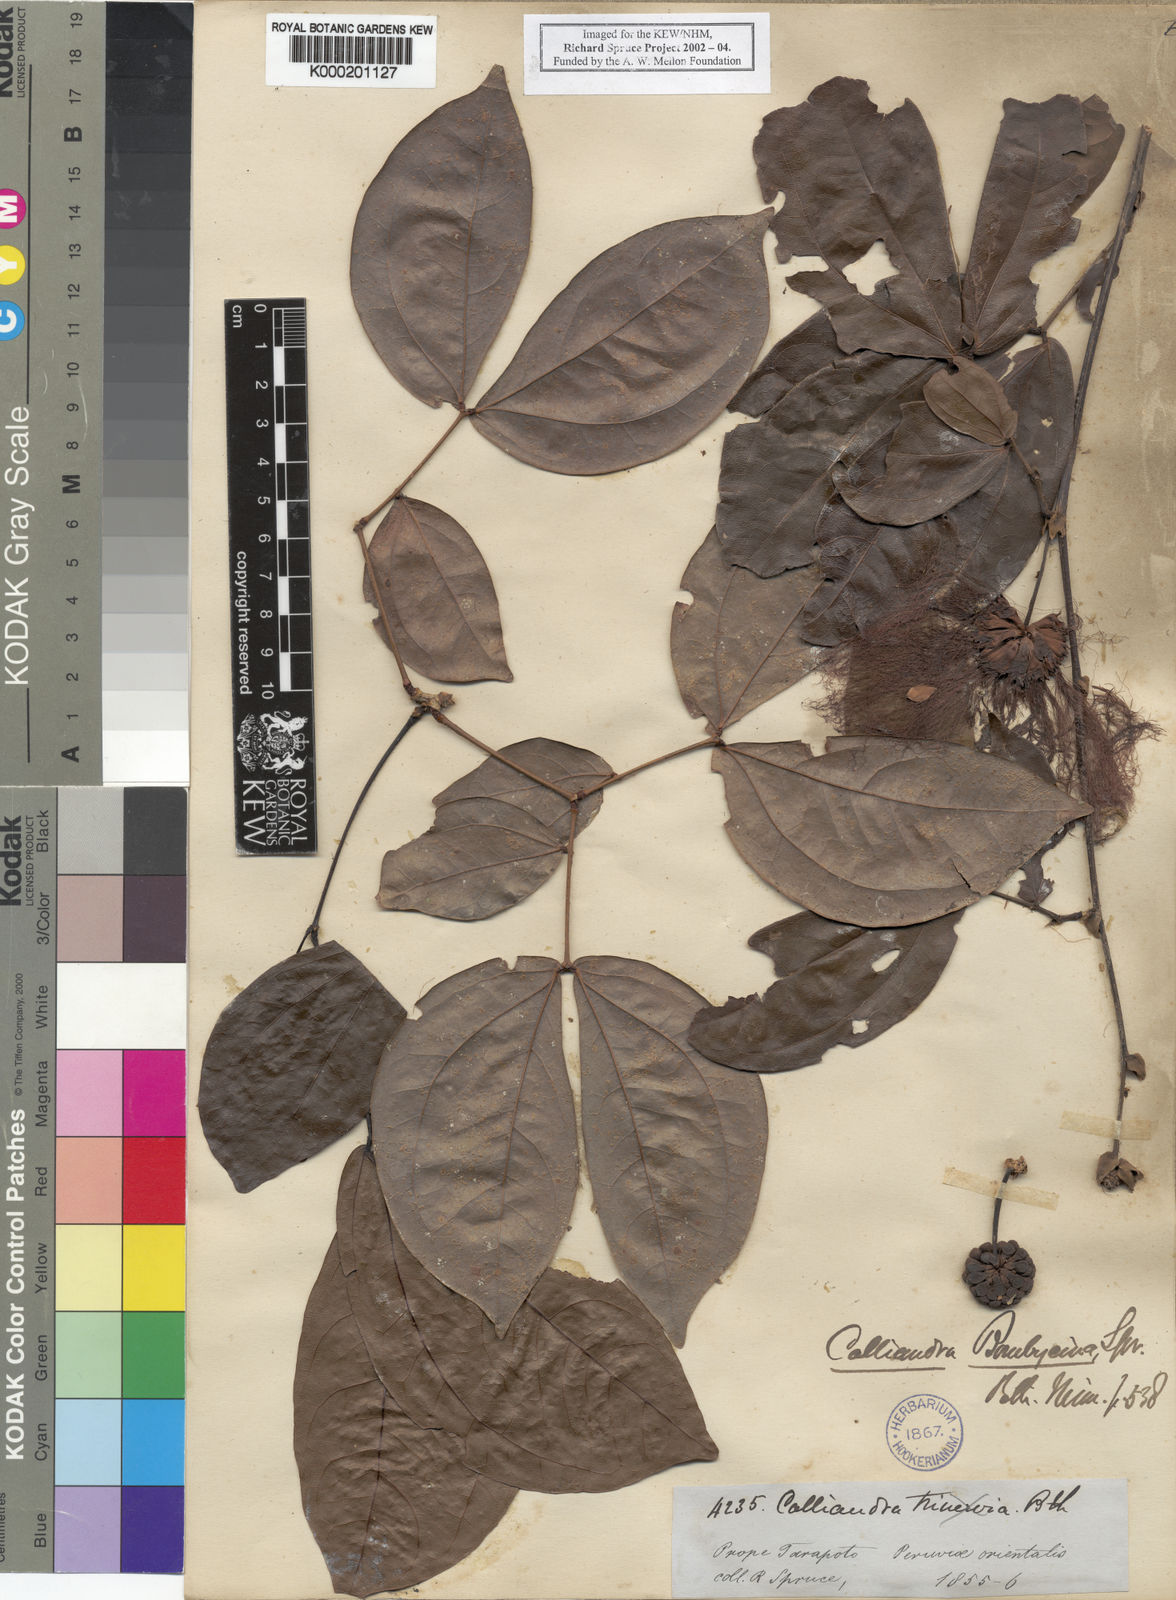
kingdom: Plantae
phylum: Tracheophyta
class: Magnoliopsida
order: Fabales
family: Fabaceae
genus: Calliandra
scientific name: Calliandra bombycina
